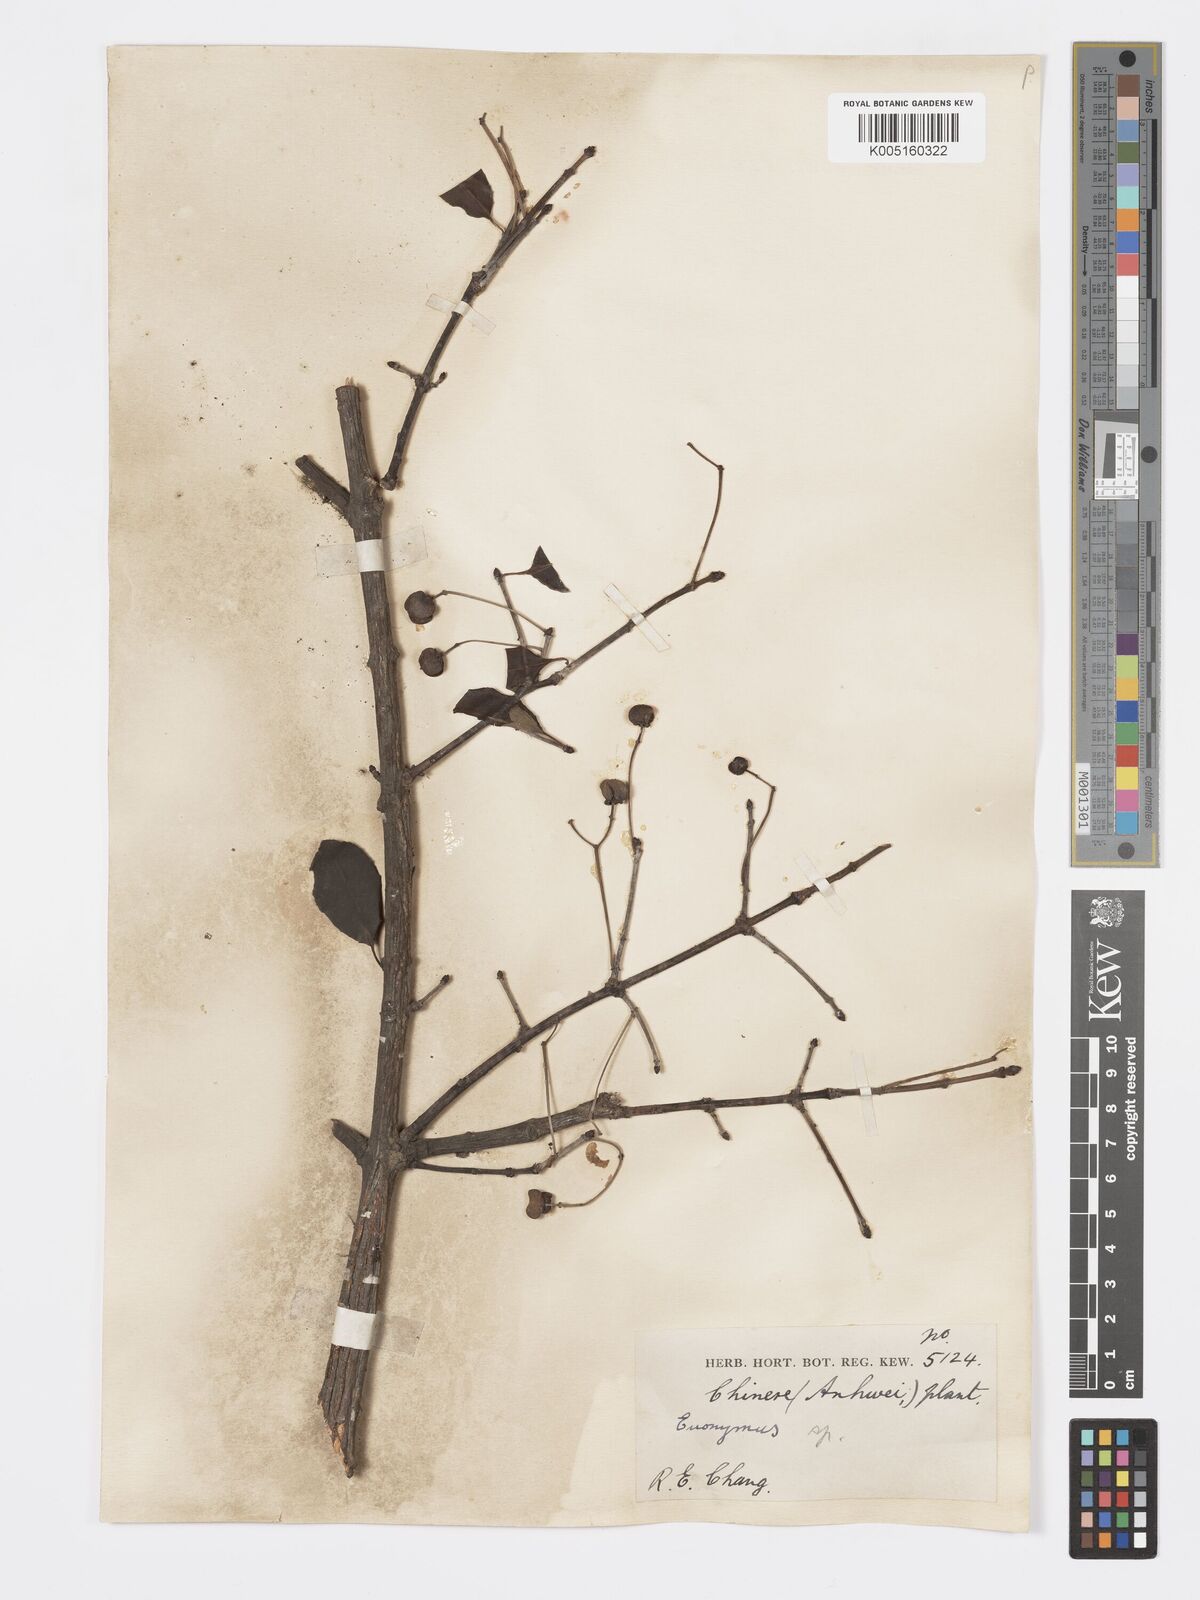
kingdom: Plantae
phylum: Tracheophyta
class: Magnoliopsida
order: Celastrales
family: Celastraceae
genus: Euonymus
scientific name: Euonymus
